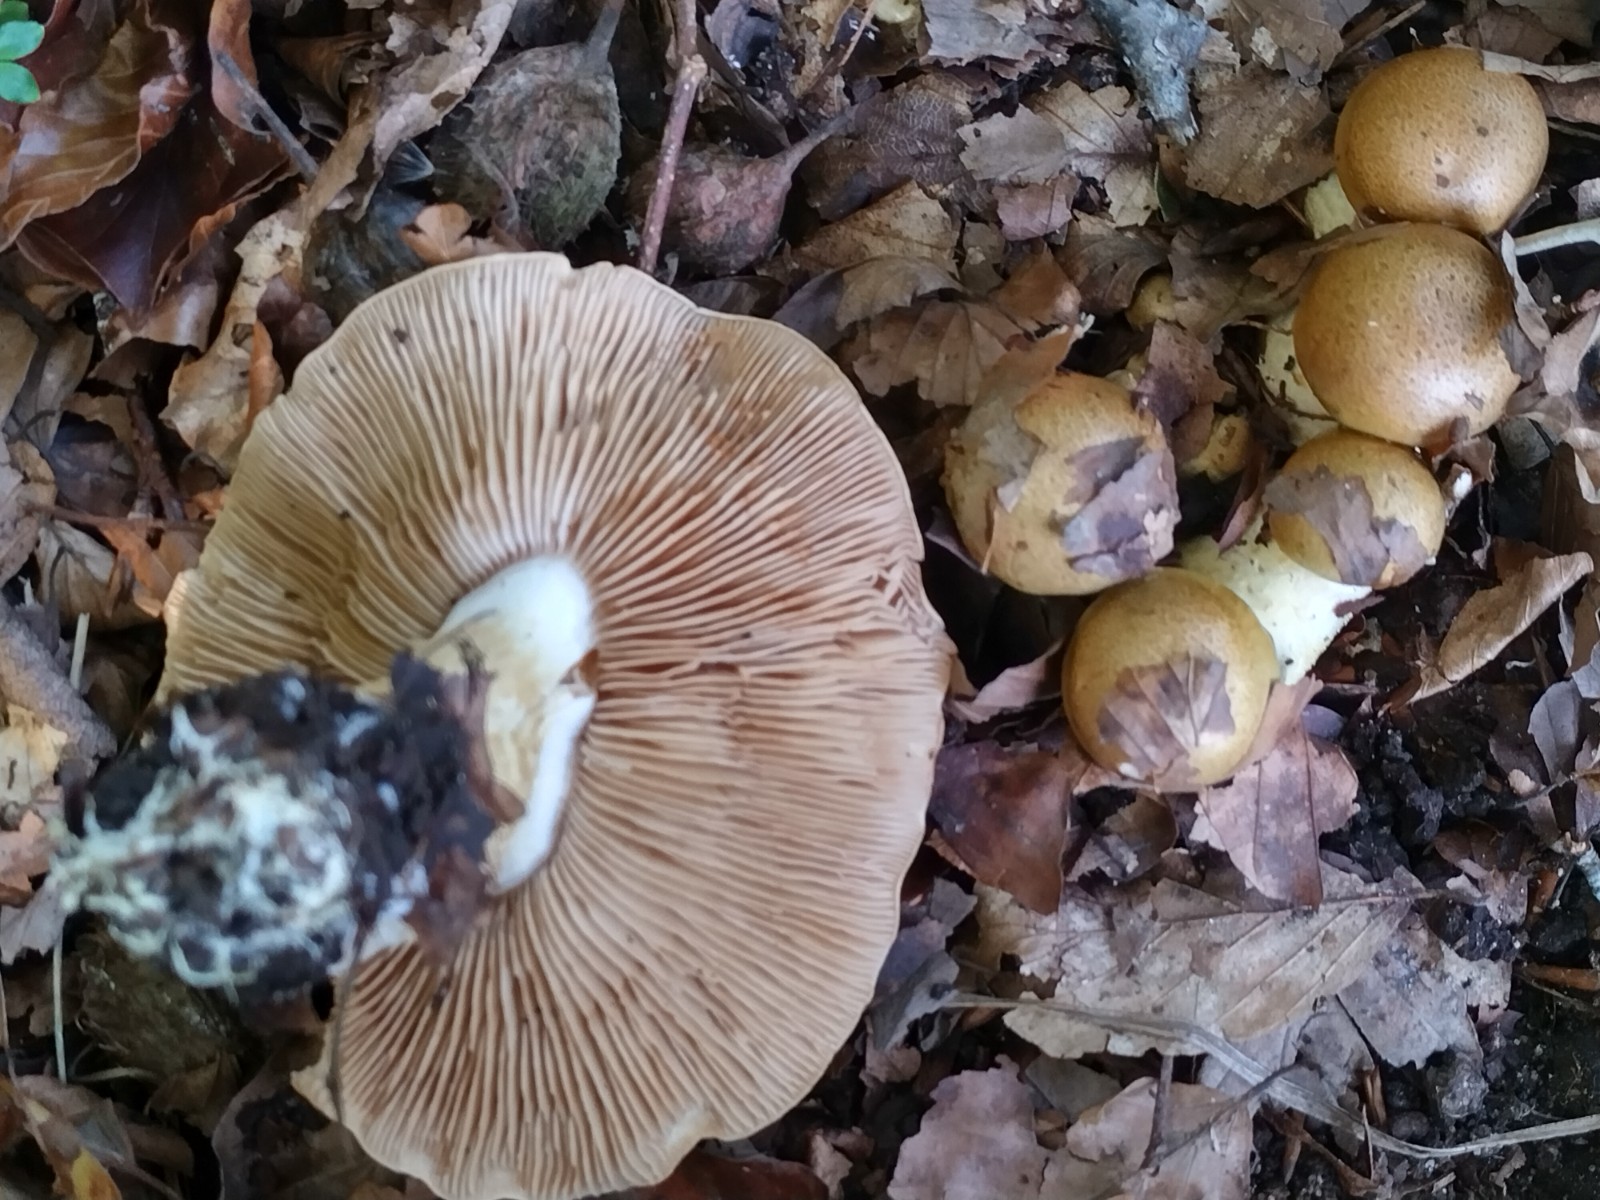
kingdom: Fungi
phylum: Basidiomycota
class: Agaricomycetes
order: Agaricales
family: Cortinariaceae
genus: Phlegmacium
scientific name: Phlegmacium cliduchus
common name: majs-slørhat
